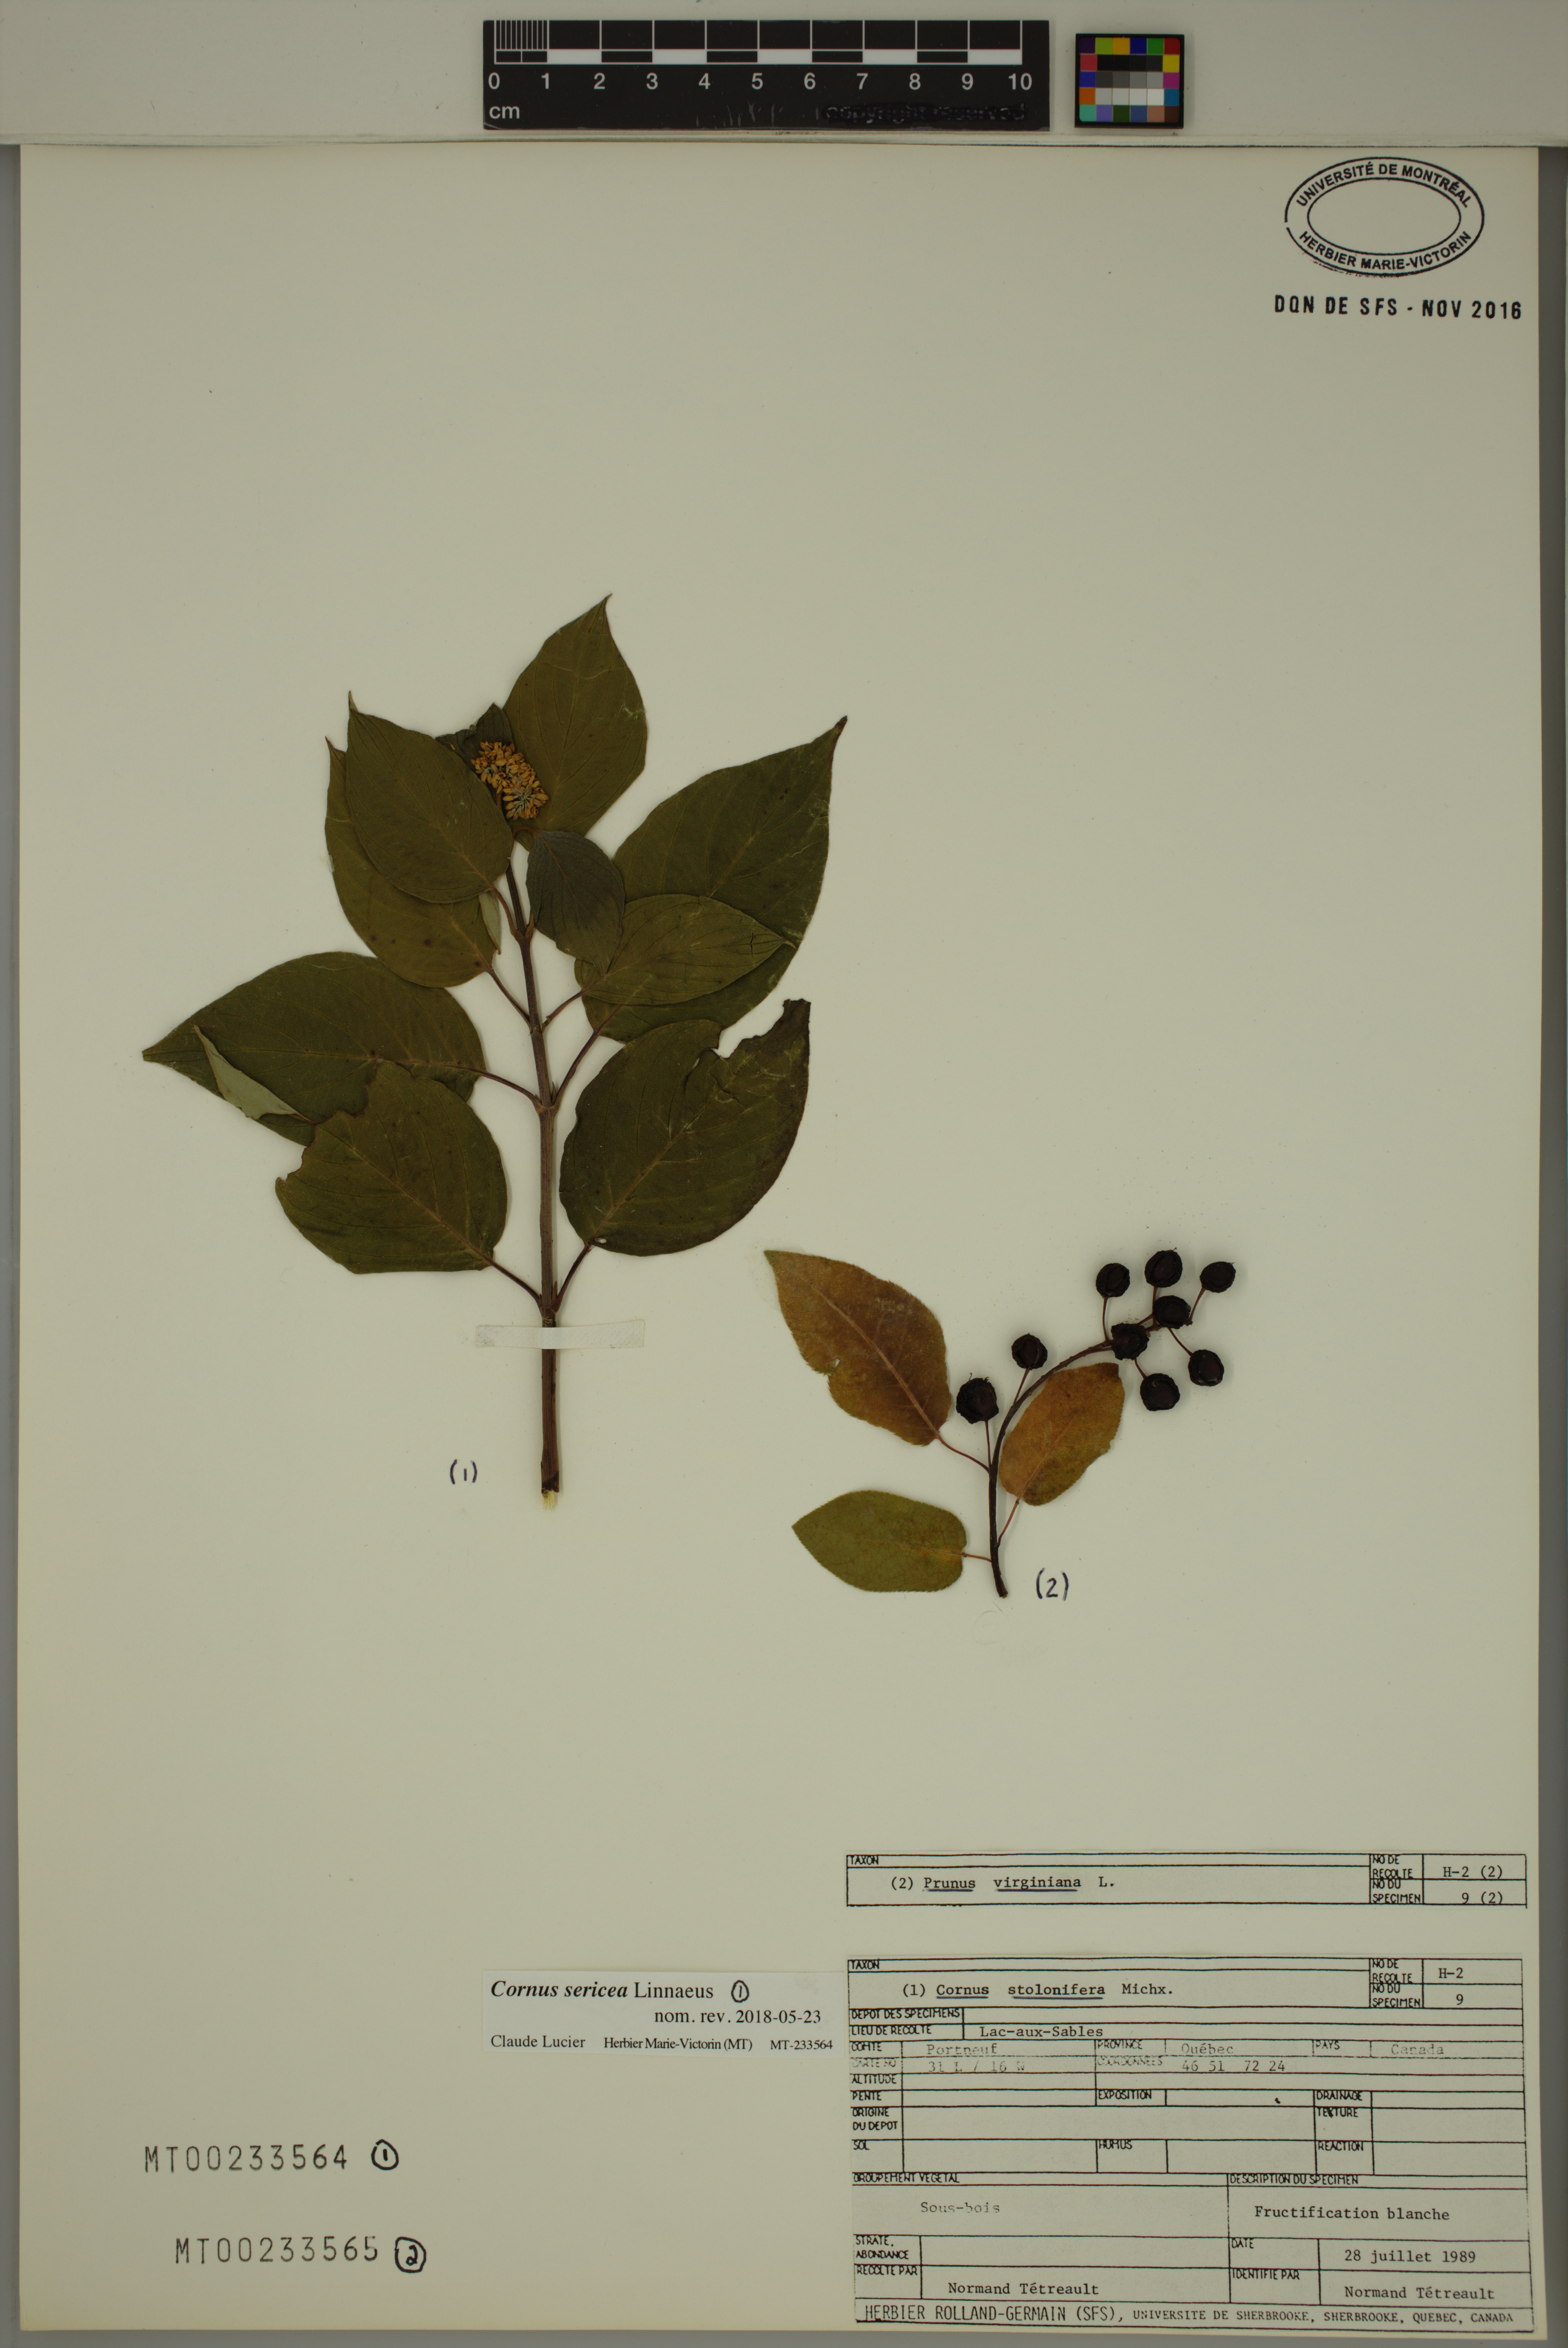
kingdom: Plantae
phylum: Tracheophyta
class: Magnoliopsida
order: Cornales
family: Cornaceae
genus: Cornus
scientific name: Cornus sericea
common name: Red-osier dogwood
